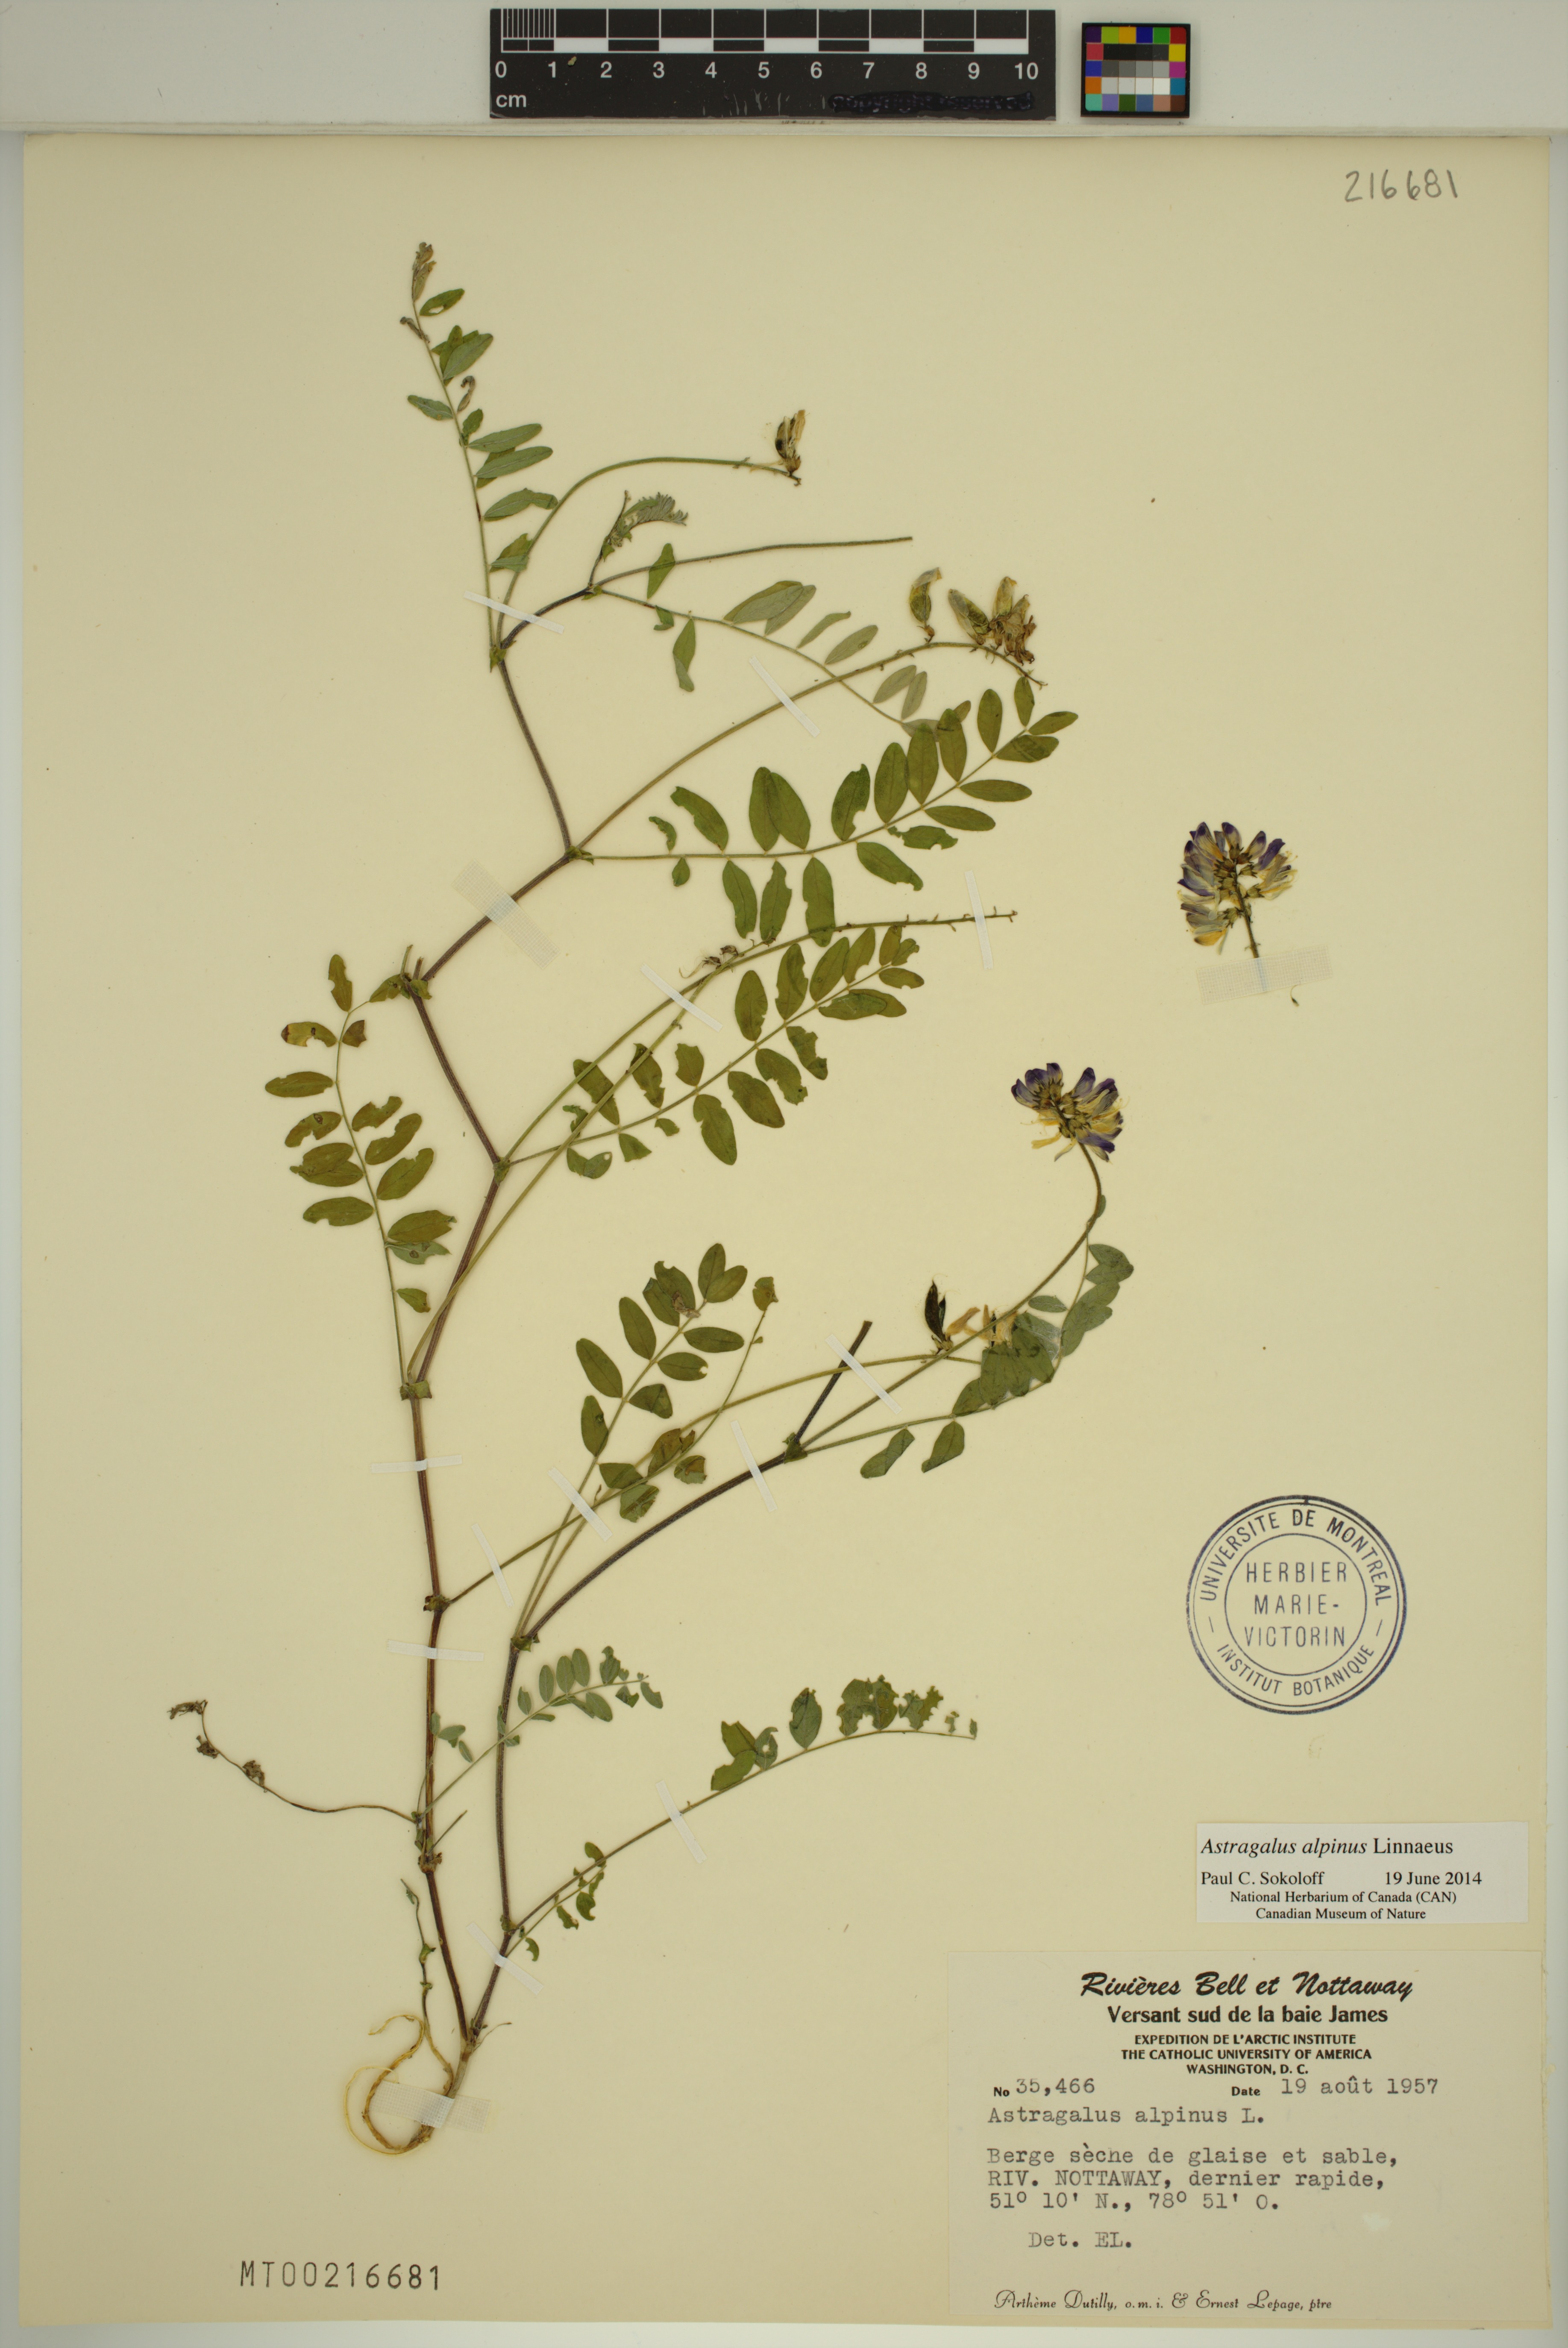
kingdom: Plantae
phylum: Tracheophyta
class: Magnoliopsida
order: Fabales
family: Fabaceae
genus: Astragalus
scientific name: Astragalus alpinus
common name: Alpine milk-vetch
